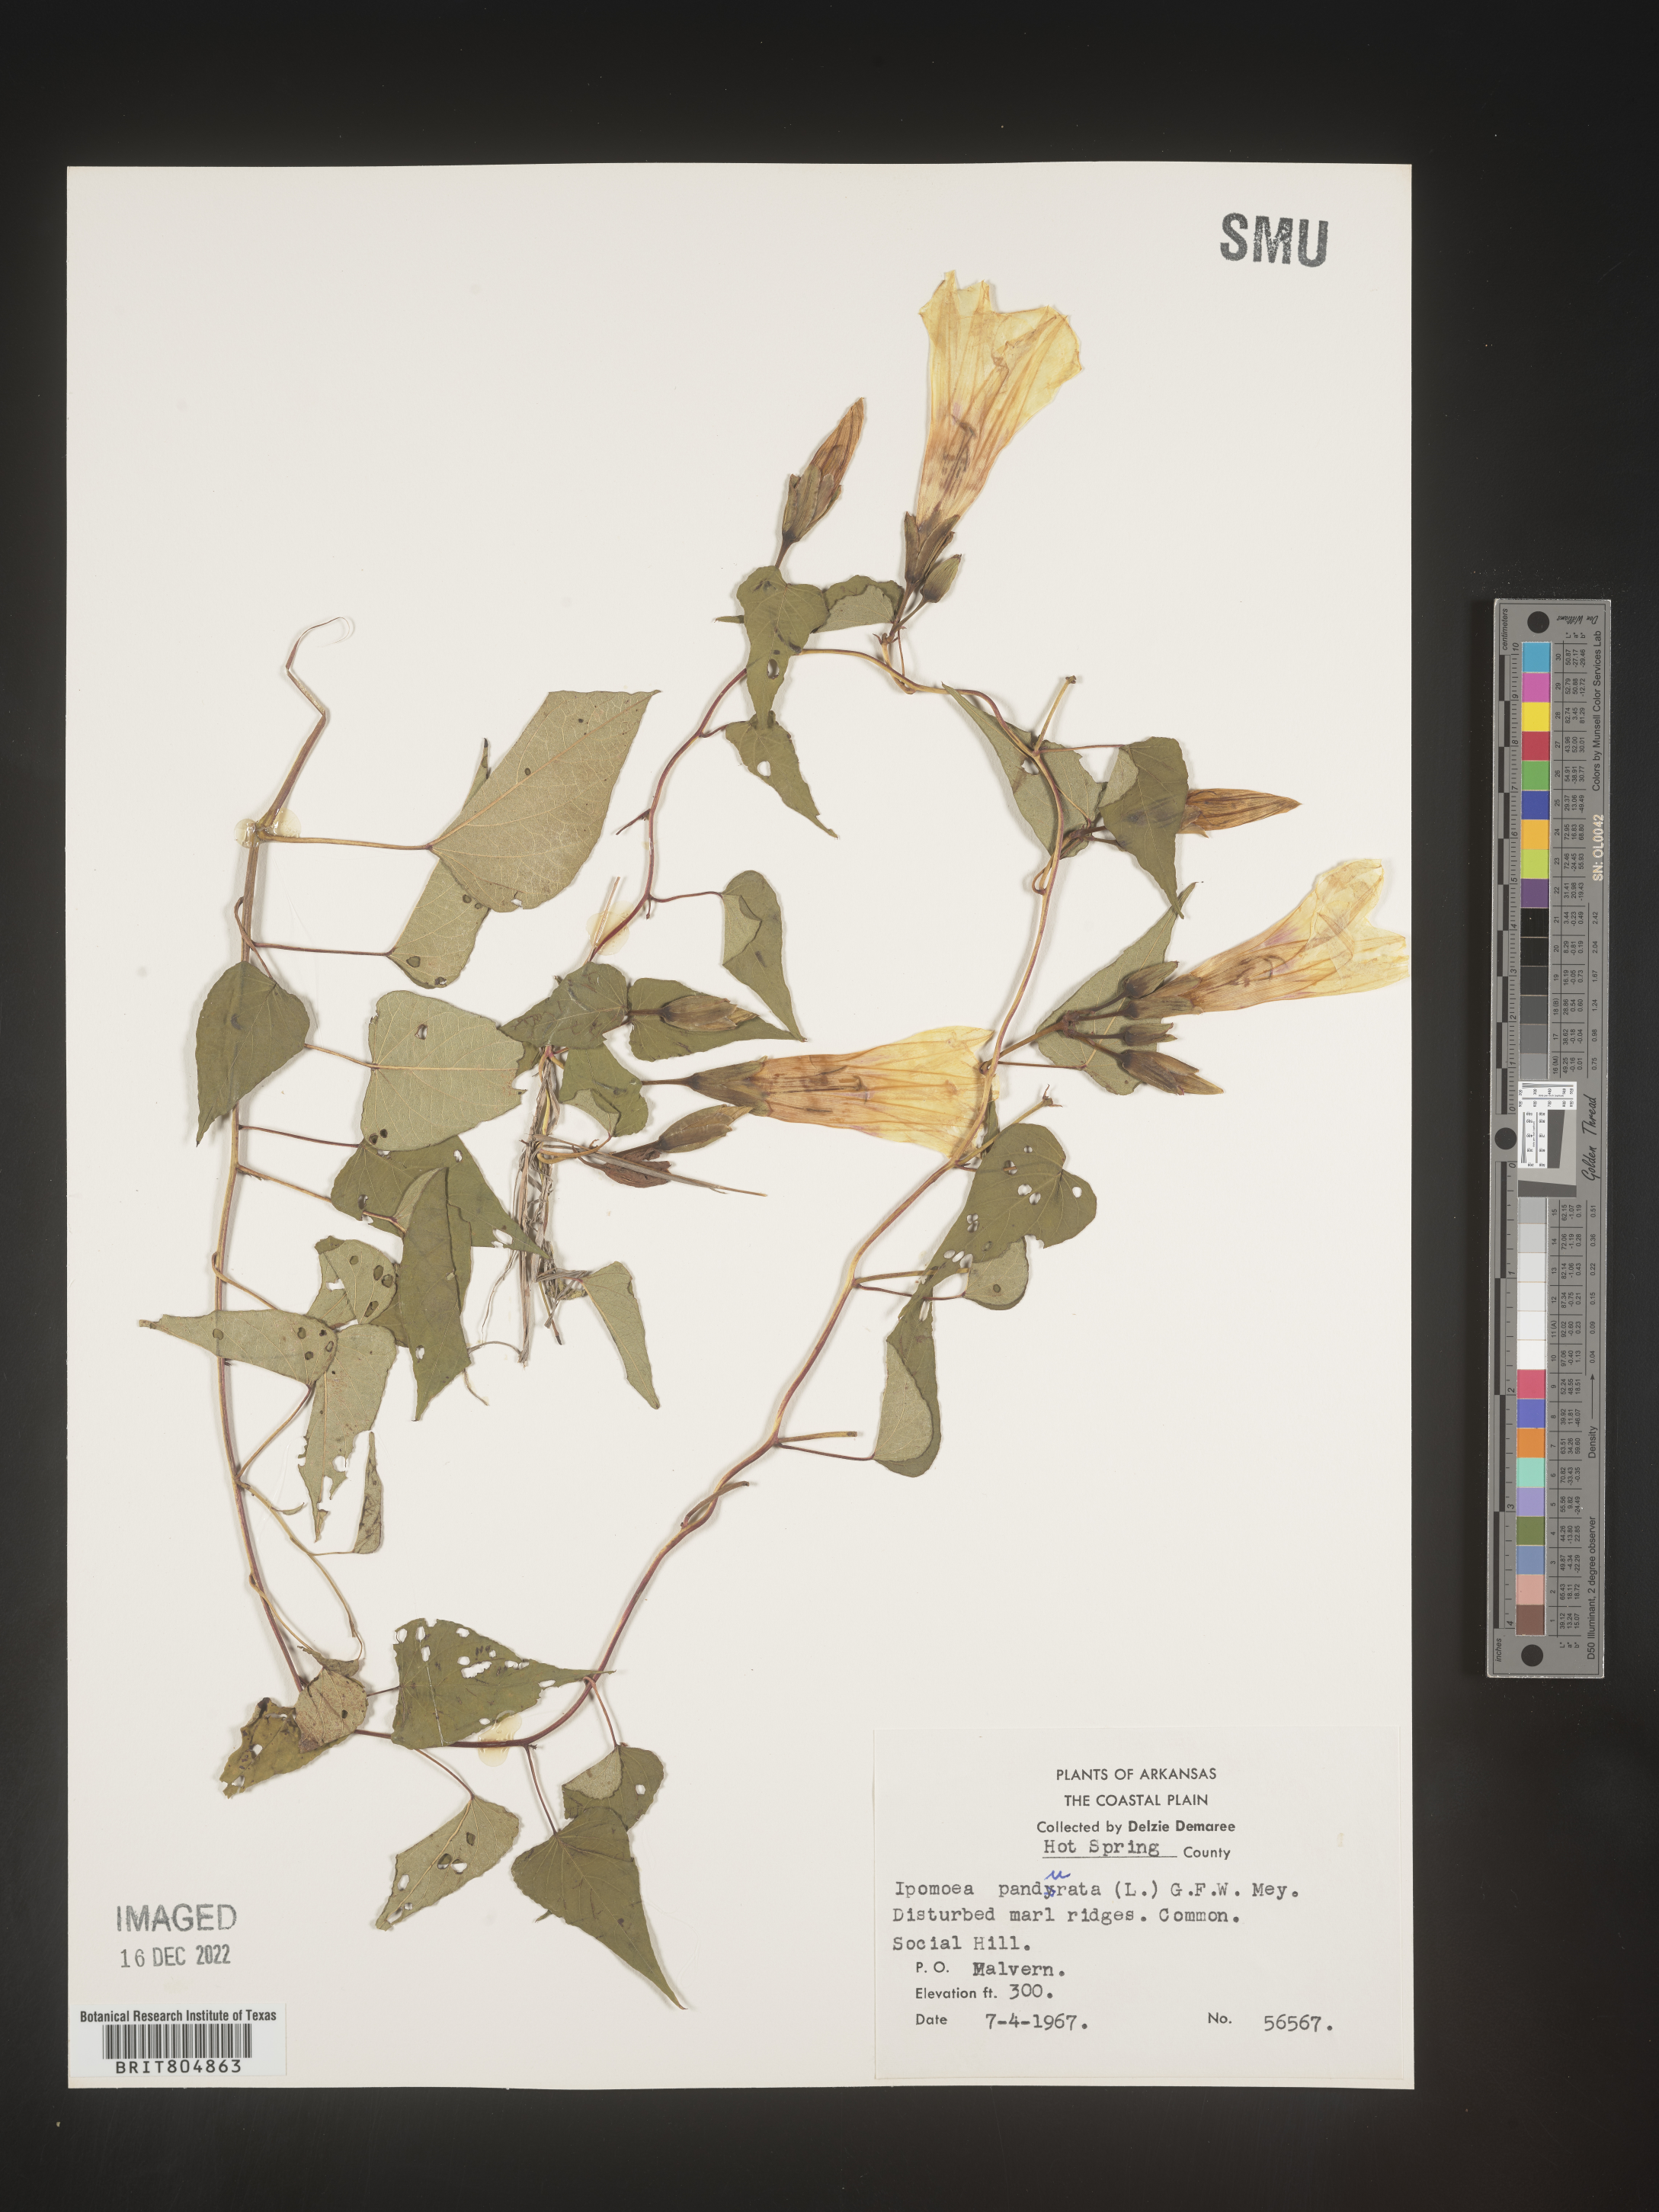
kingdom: Plantae
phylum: Tracheophyta
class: Magnoliopsida
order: Solanales
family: Convolvulaceae
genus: Ipomoea
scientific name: Ipomoea pandurata
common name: Man-of-the-earth
